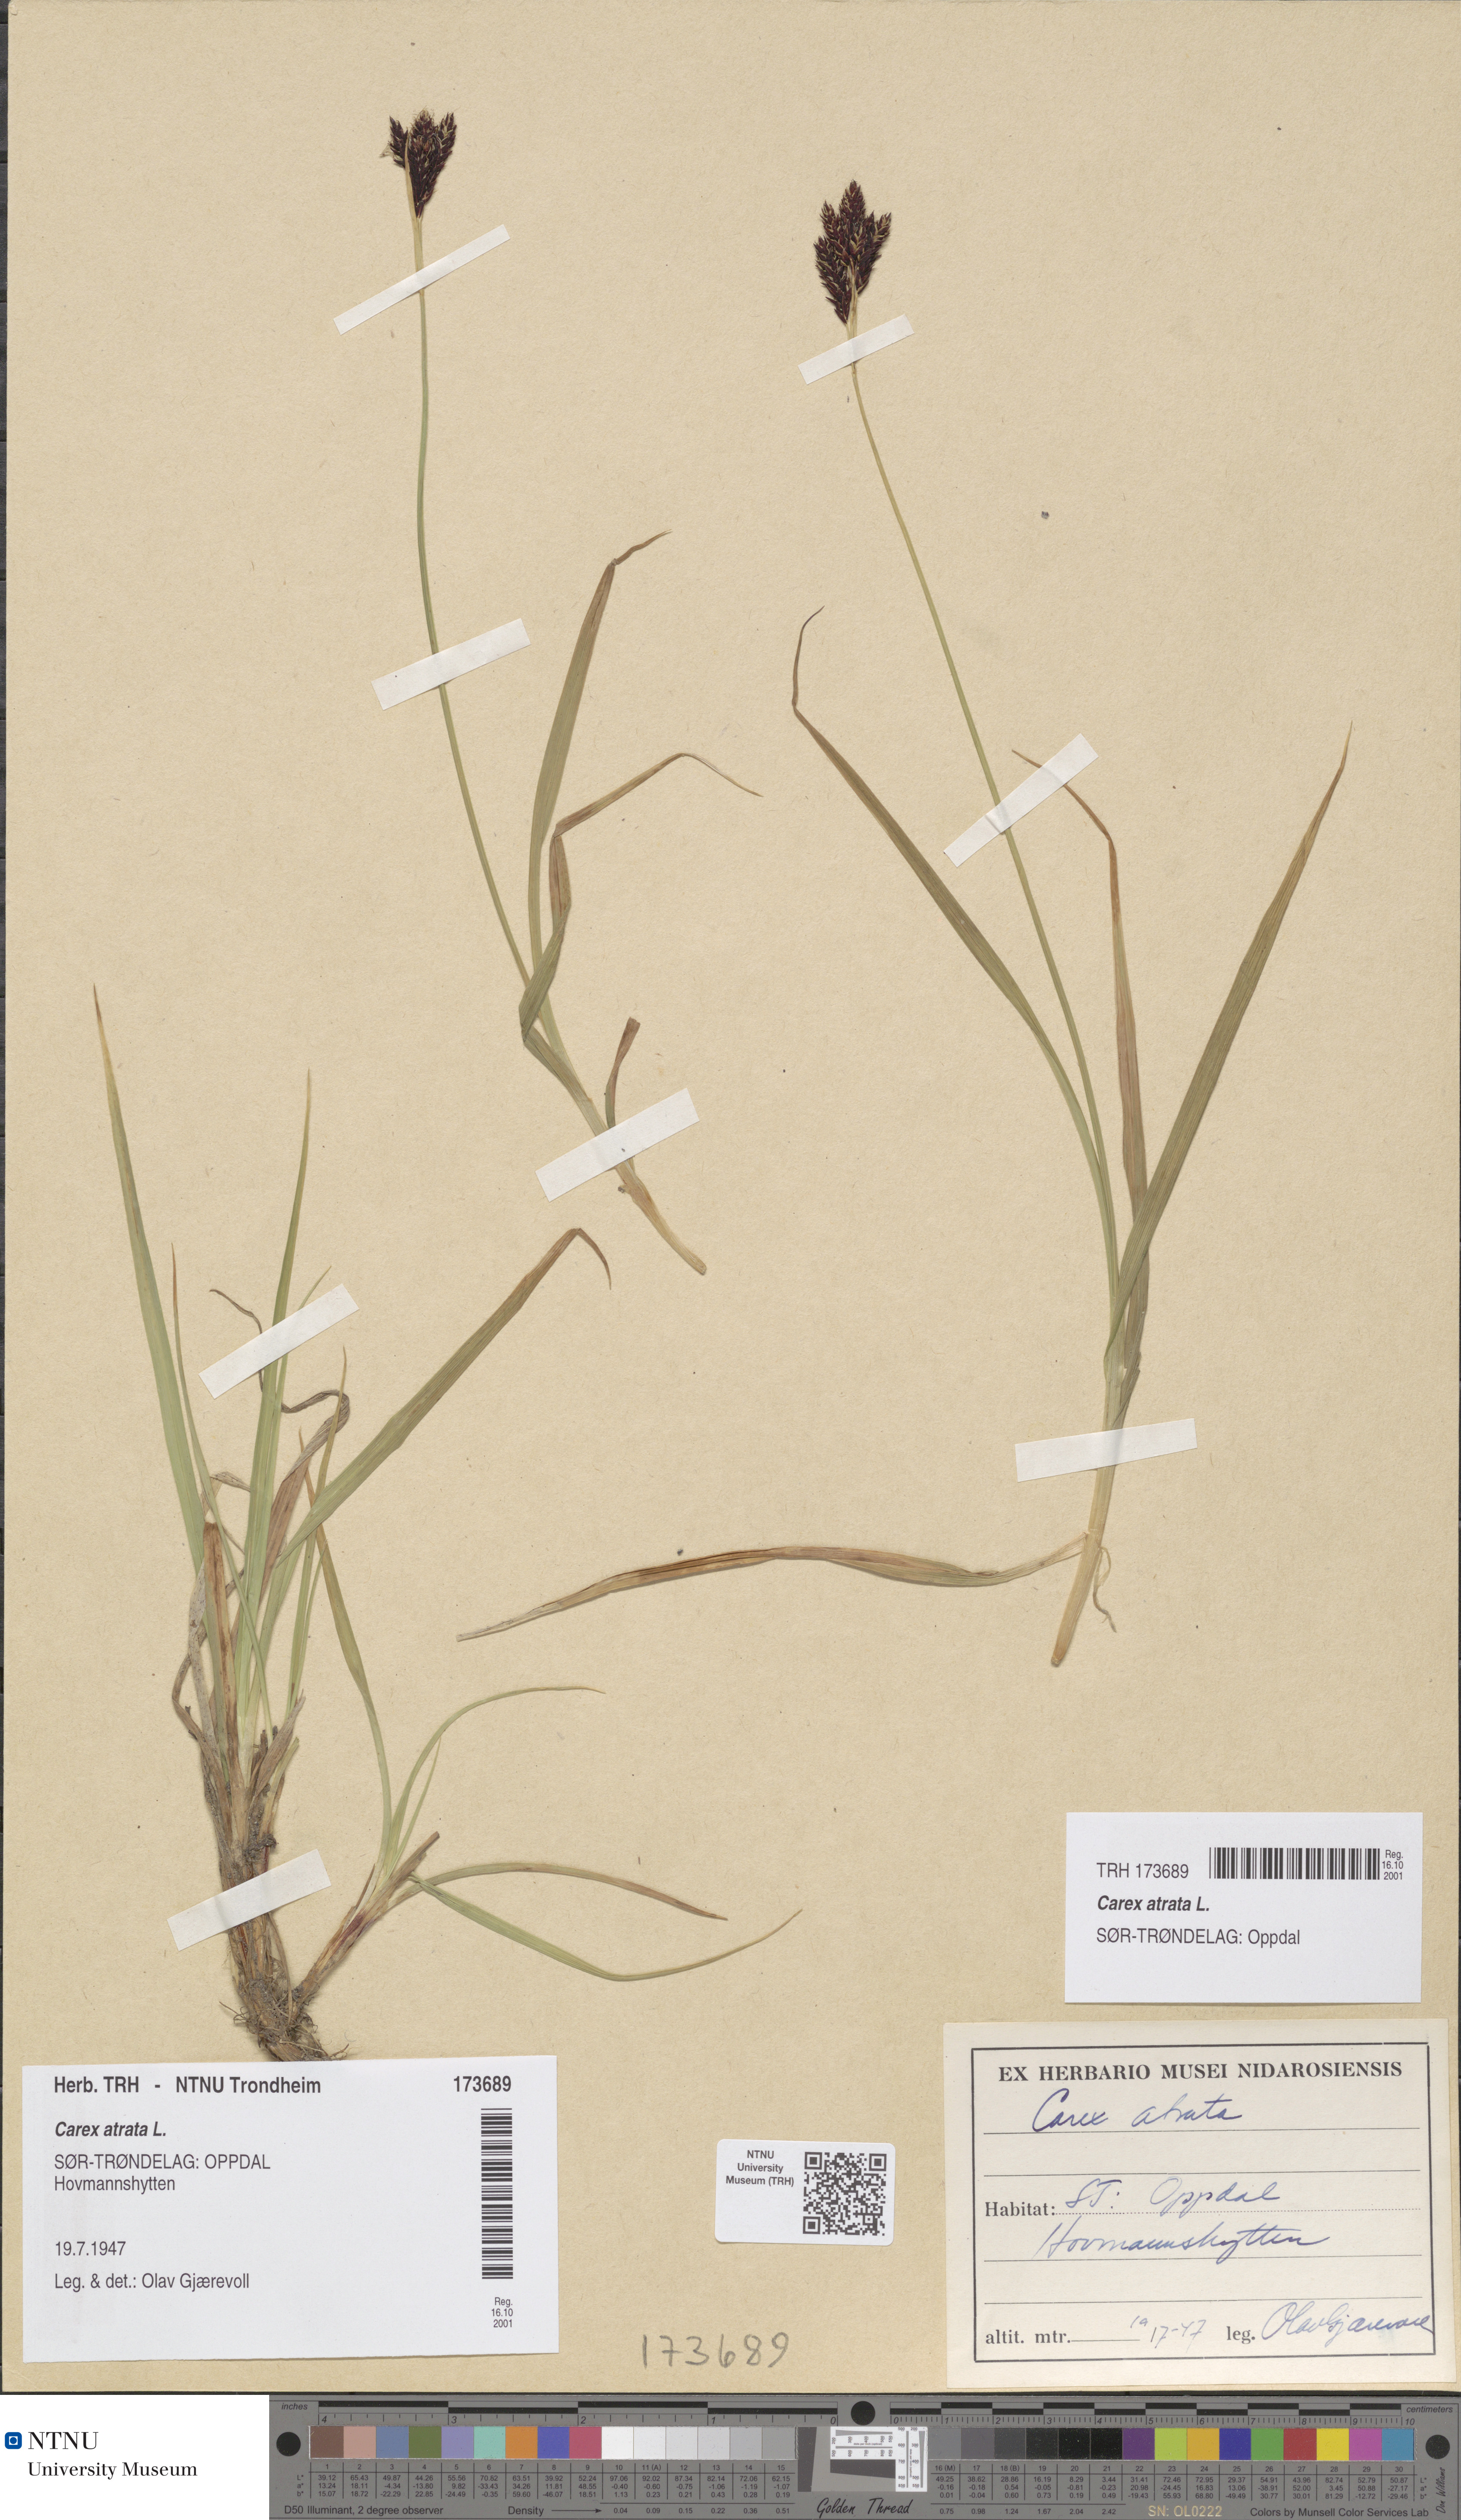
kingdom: Plantae
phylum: Tracheophyta
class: Liliopsida
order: Poales
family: Cyperaceae
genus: Carex
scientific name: Carex atrata
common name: Black alpine sedge
